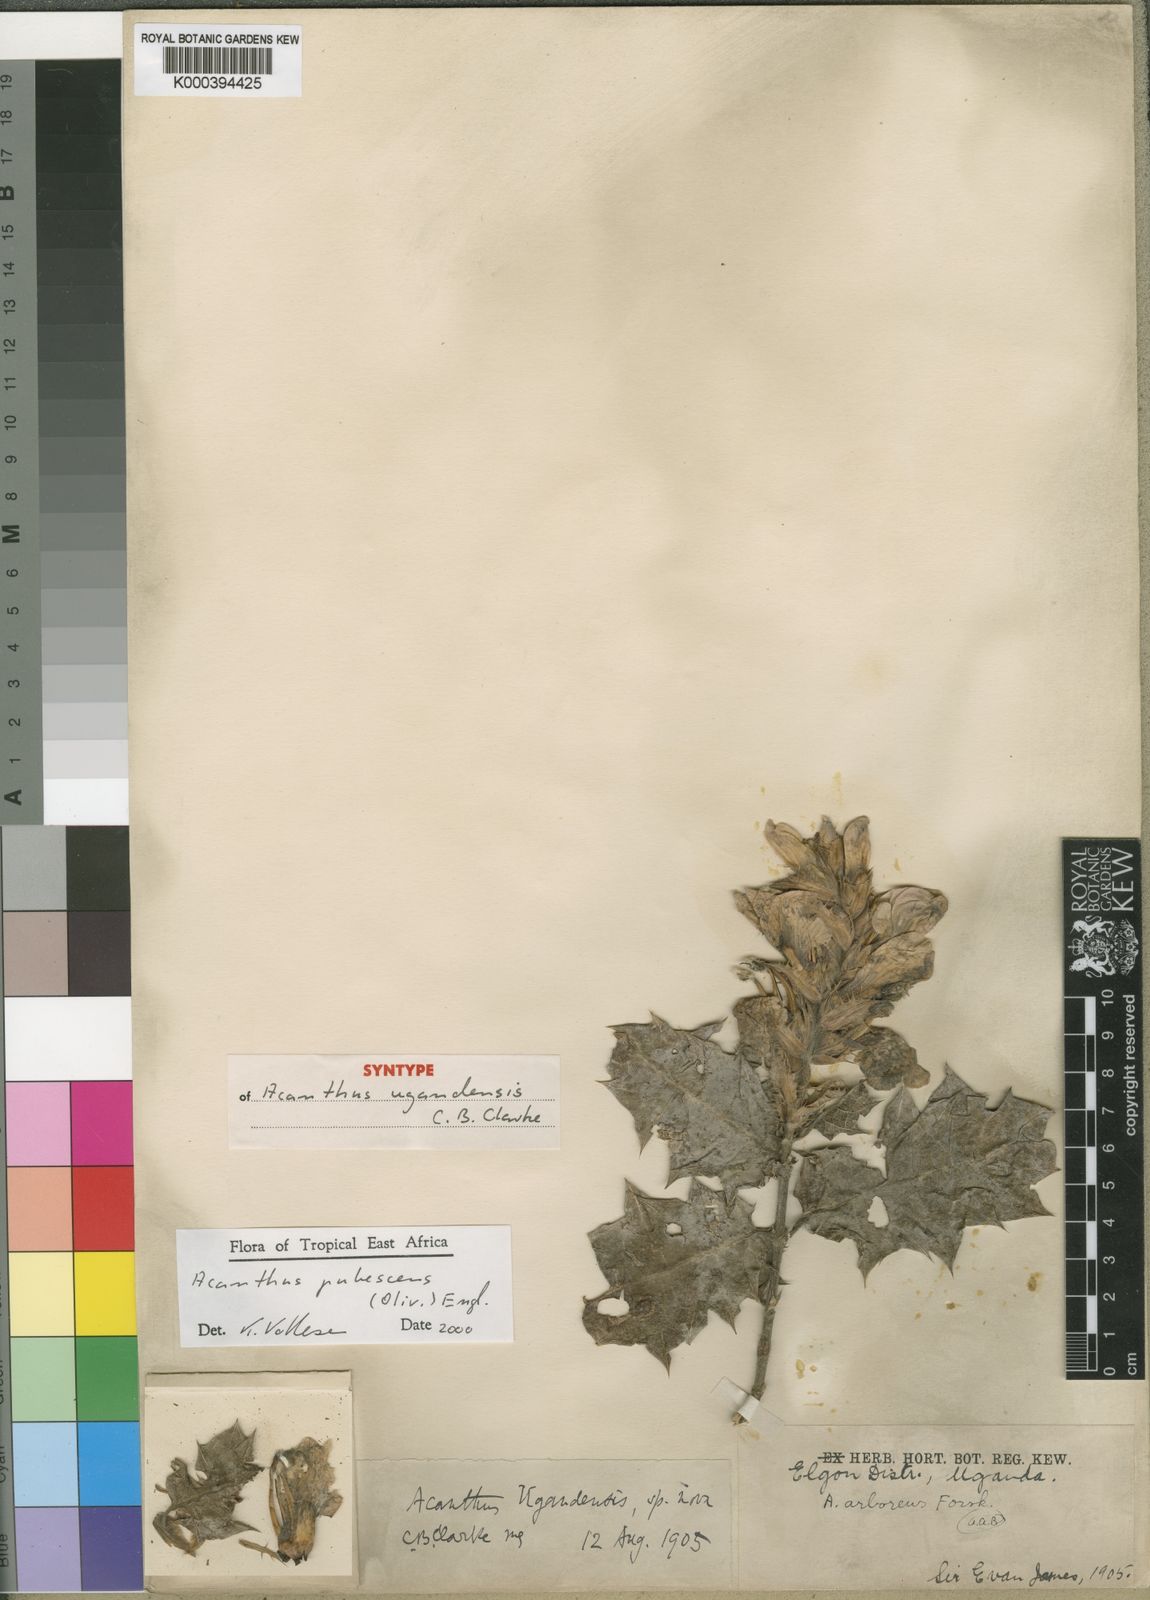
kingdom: Plantae
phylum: Tracheophyta
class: Magnoliopsida
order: Lamiales
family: Acanthaceae
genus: Acanthus
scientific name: Acanthus pubescens
